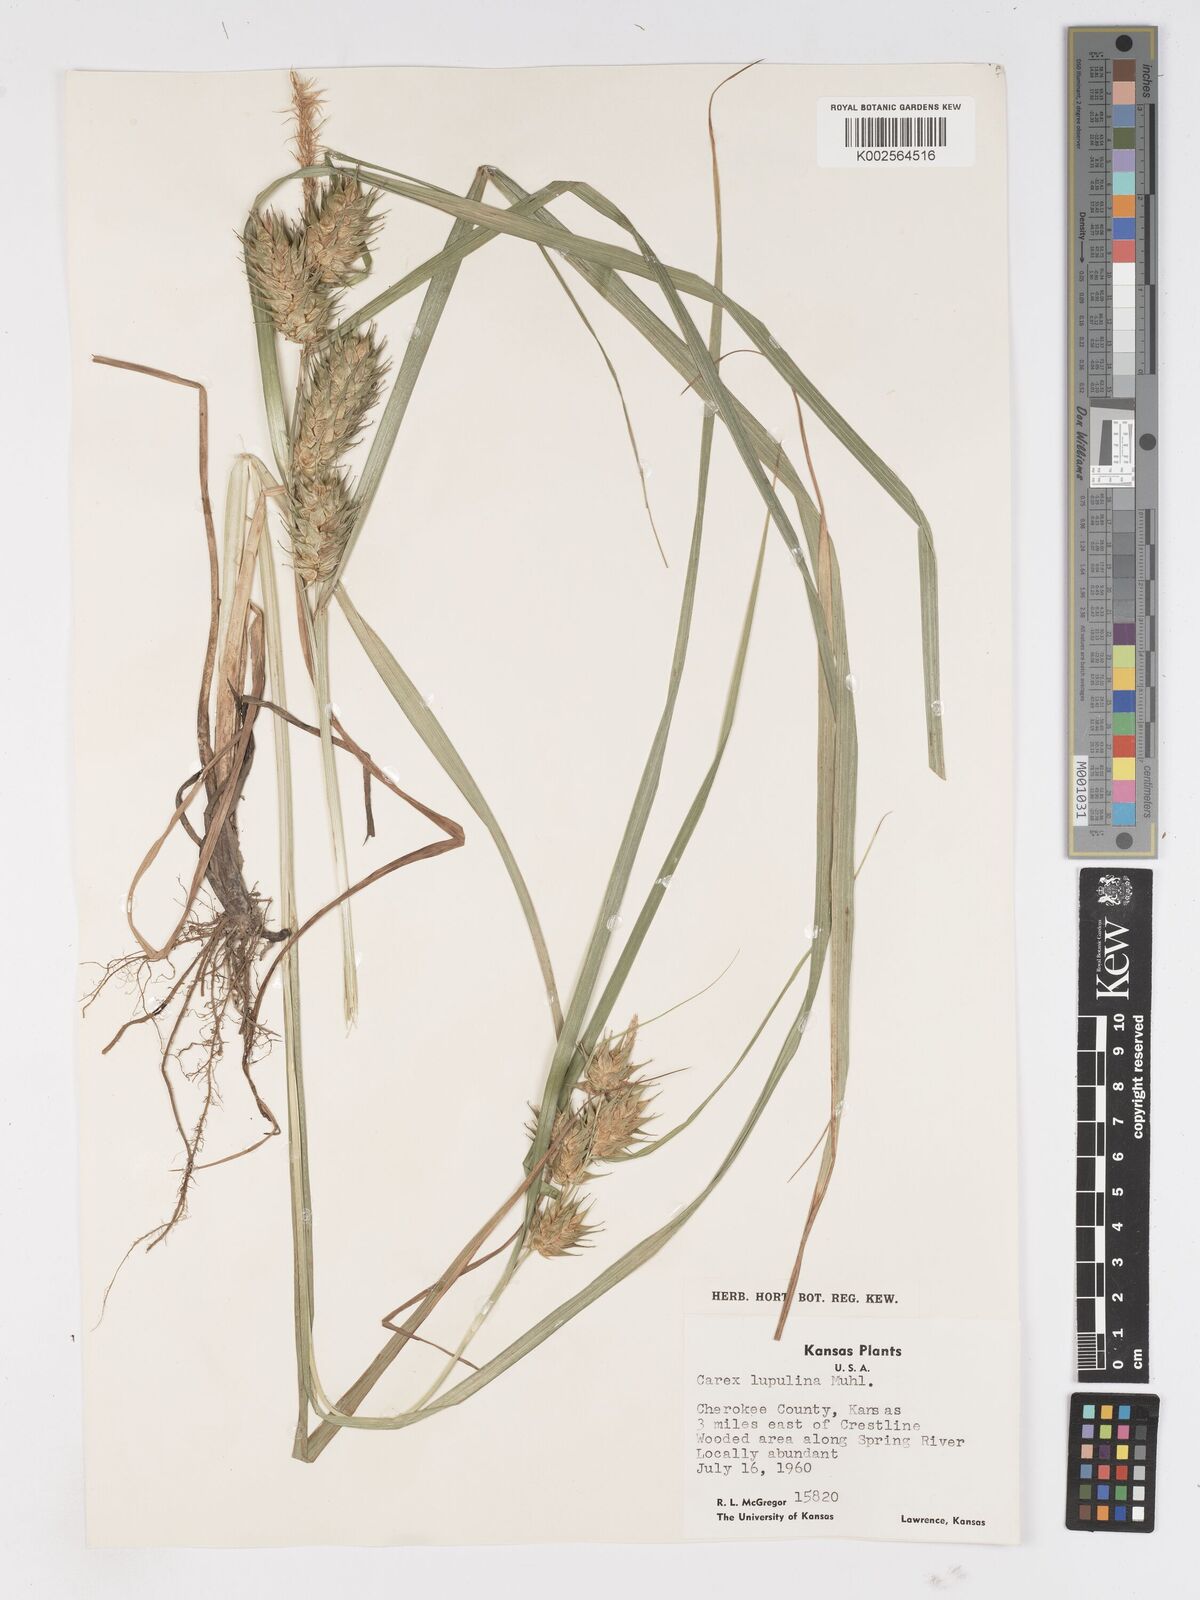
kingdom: Plantae
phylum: Tracheophyta
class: Liliopsida
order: Poales
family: Cyperaceae
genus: Carex
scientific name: Carex lupulina
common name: Hop sedge
